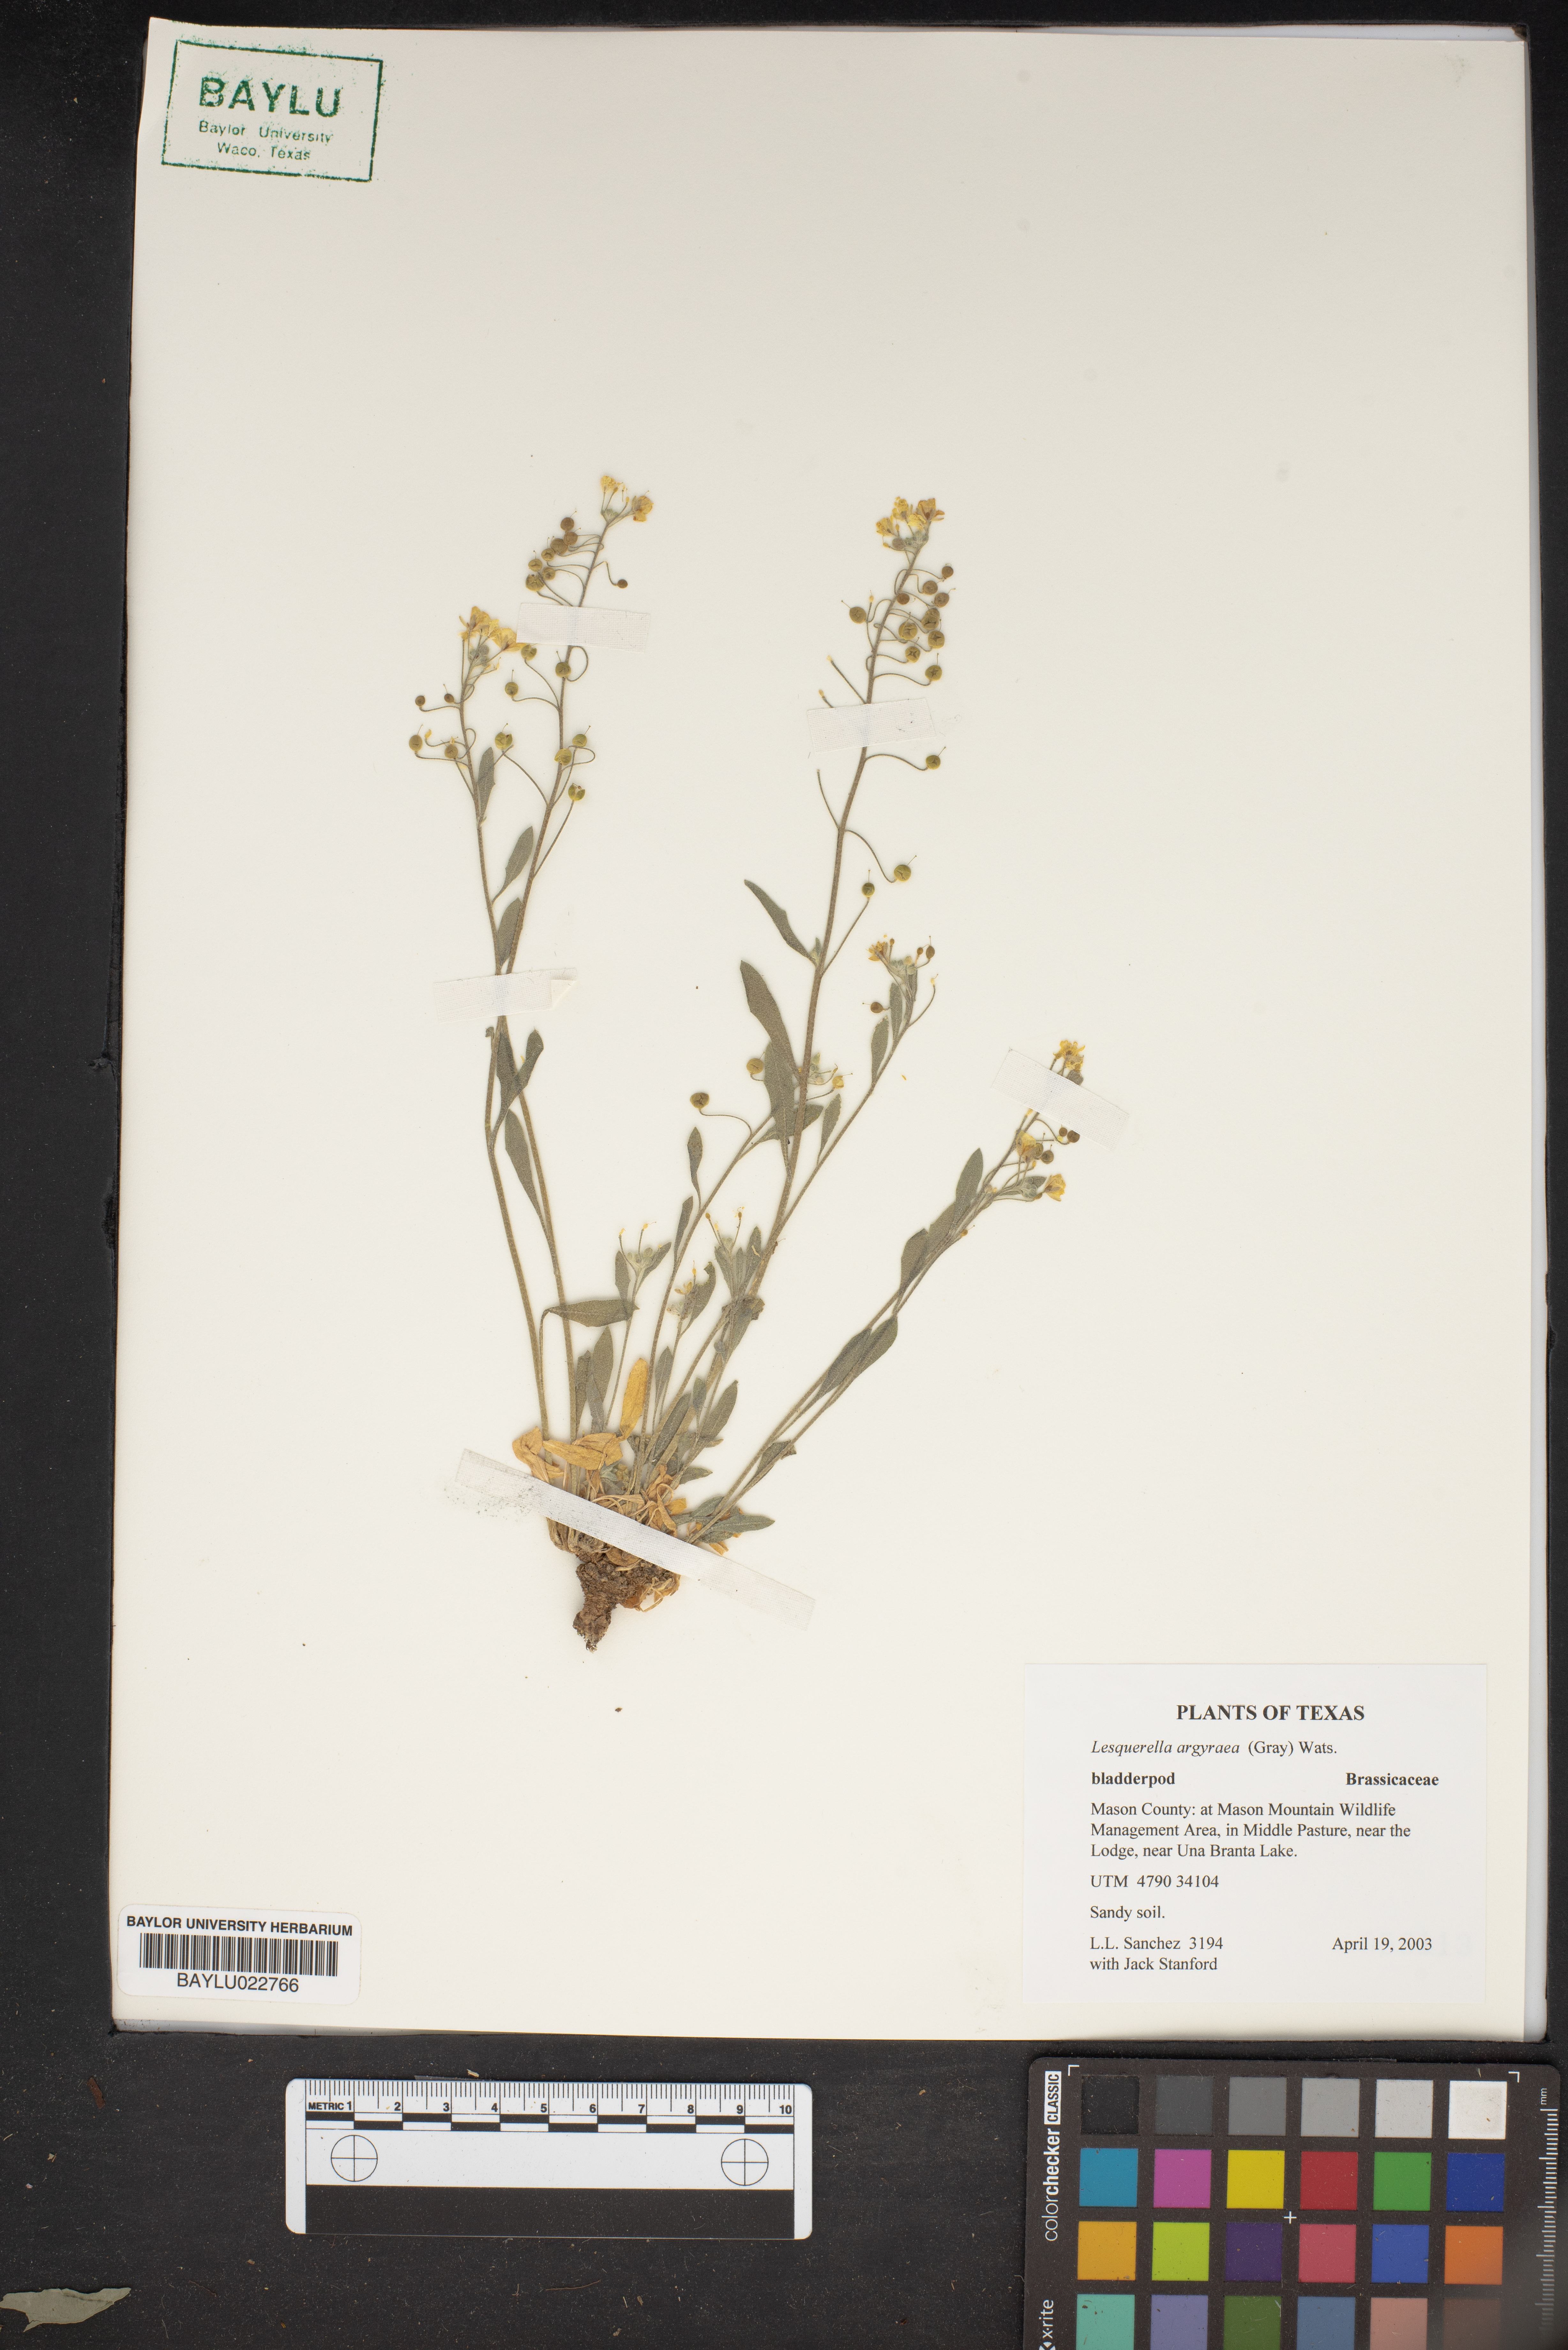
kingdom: Plantae
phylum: Tracheophyta
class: Magnoliopsida
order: Brassicales
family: Brassicaceae
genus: Physaria
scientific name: Physaria argyraea
